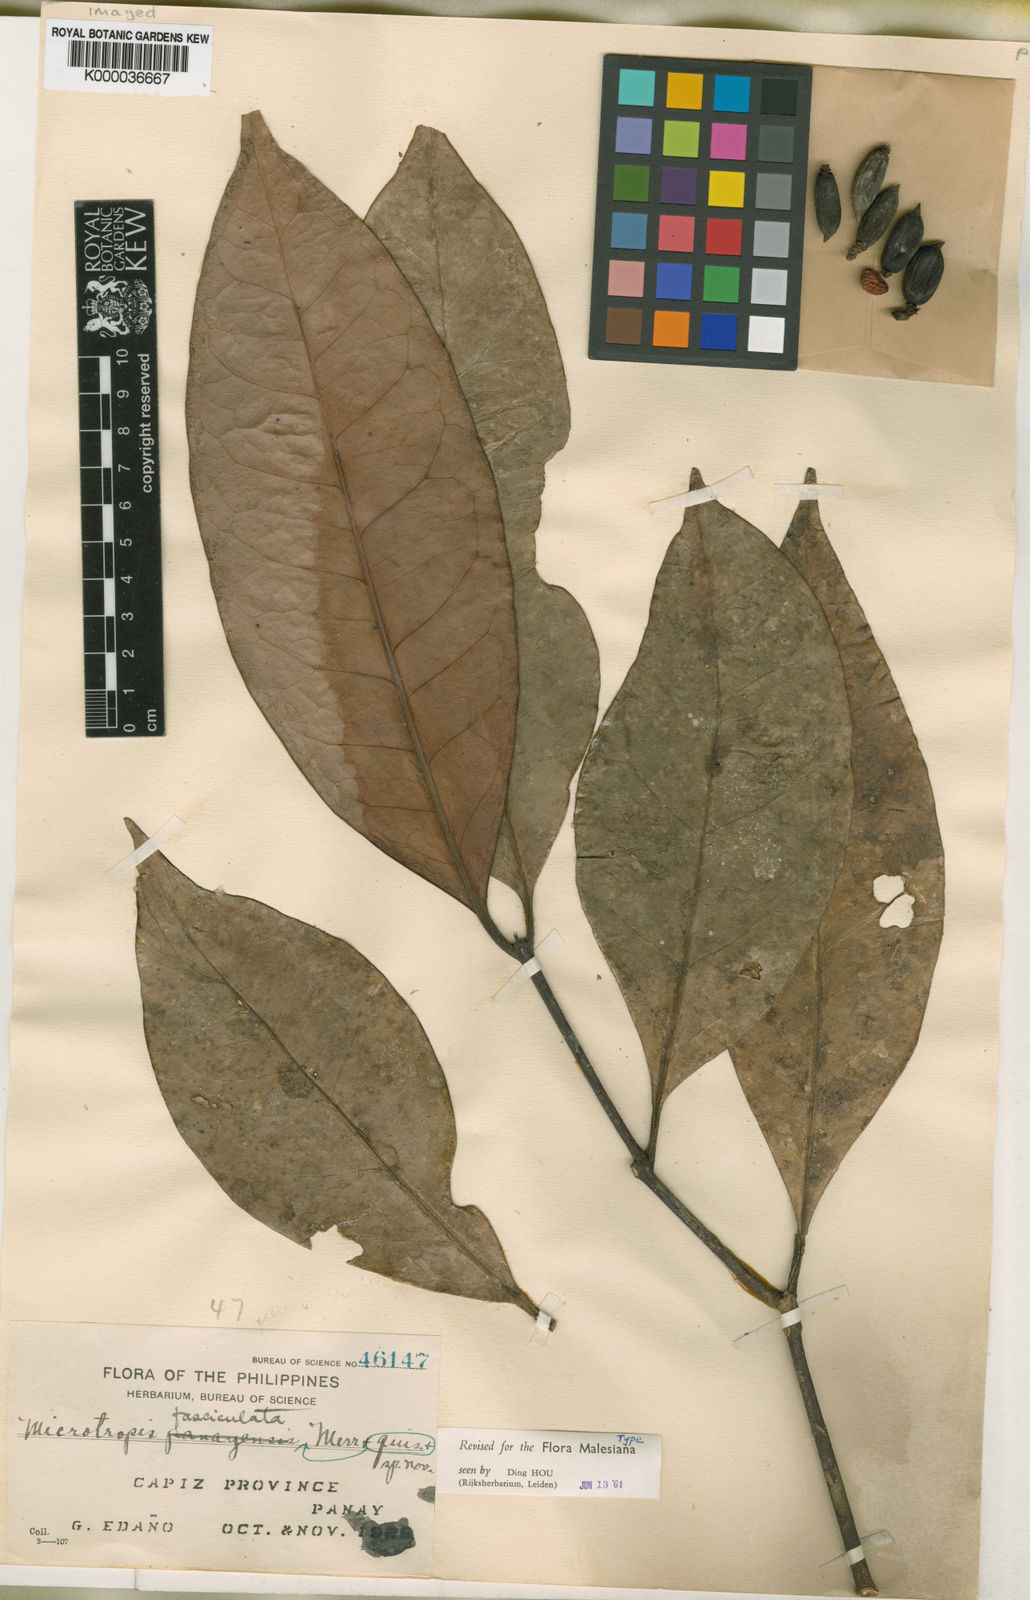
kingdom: Plantae
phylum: Tracheophyta
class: Magnoliopsida
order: Celastrales
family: Celastraceae
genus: Microtropis
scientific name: Microtropis platyphylla
